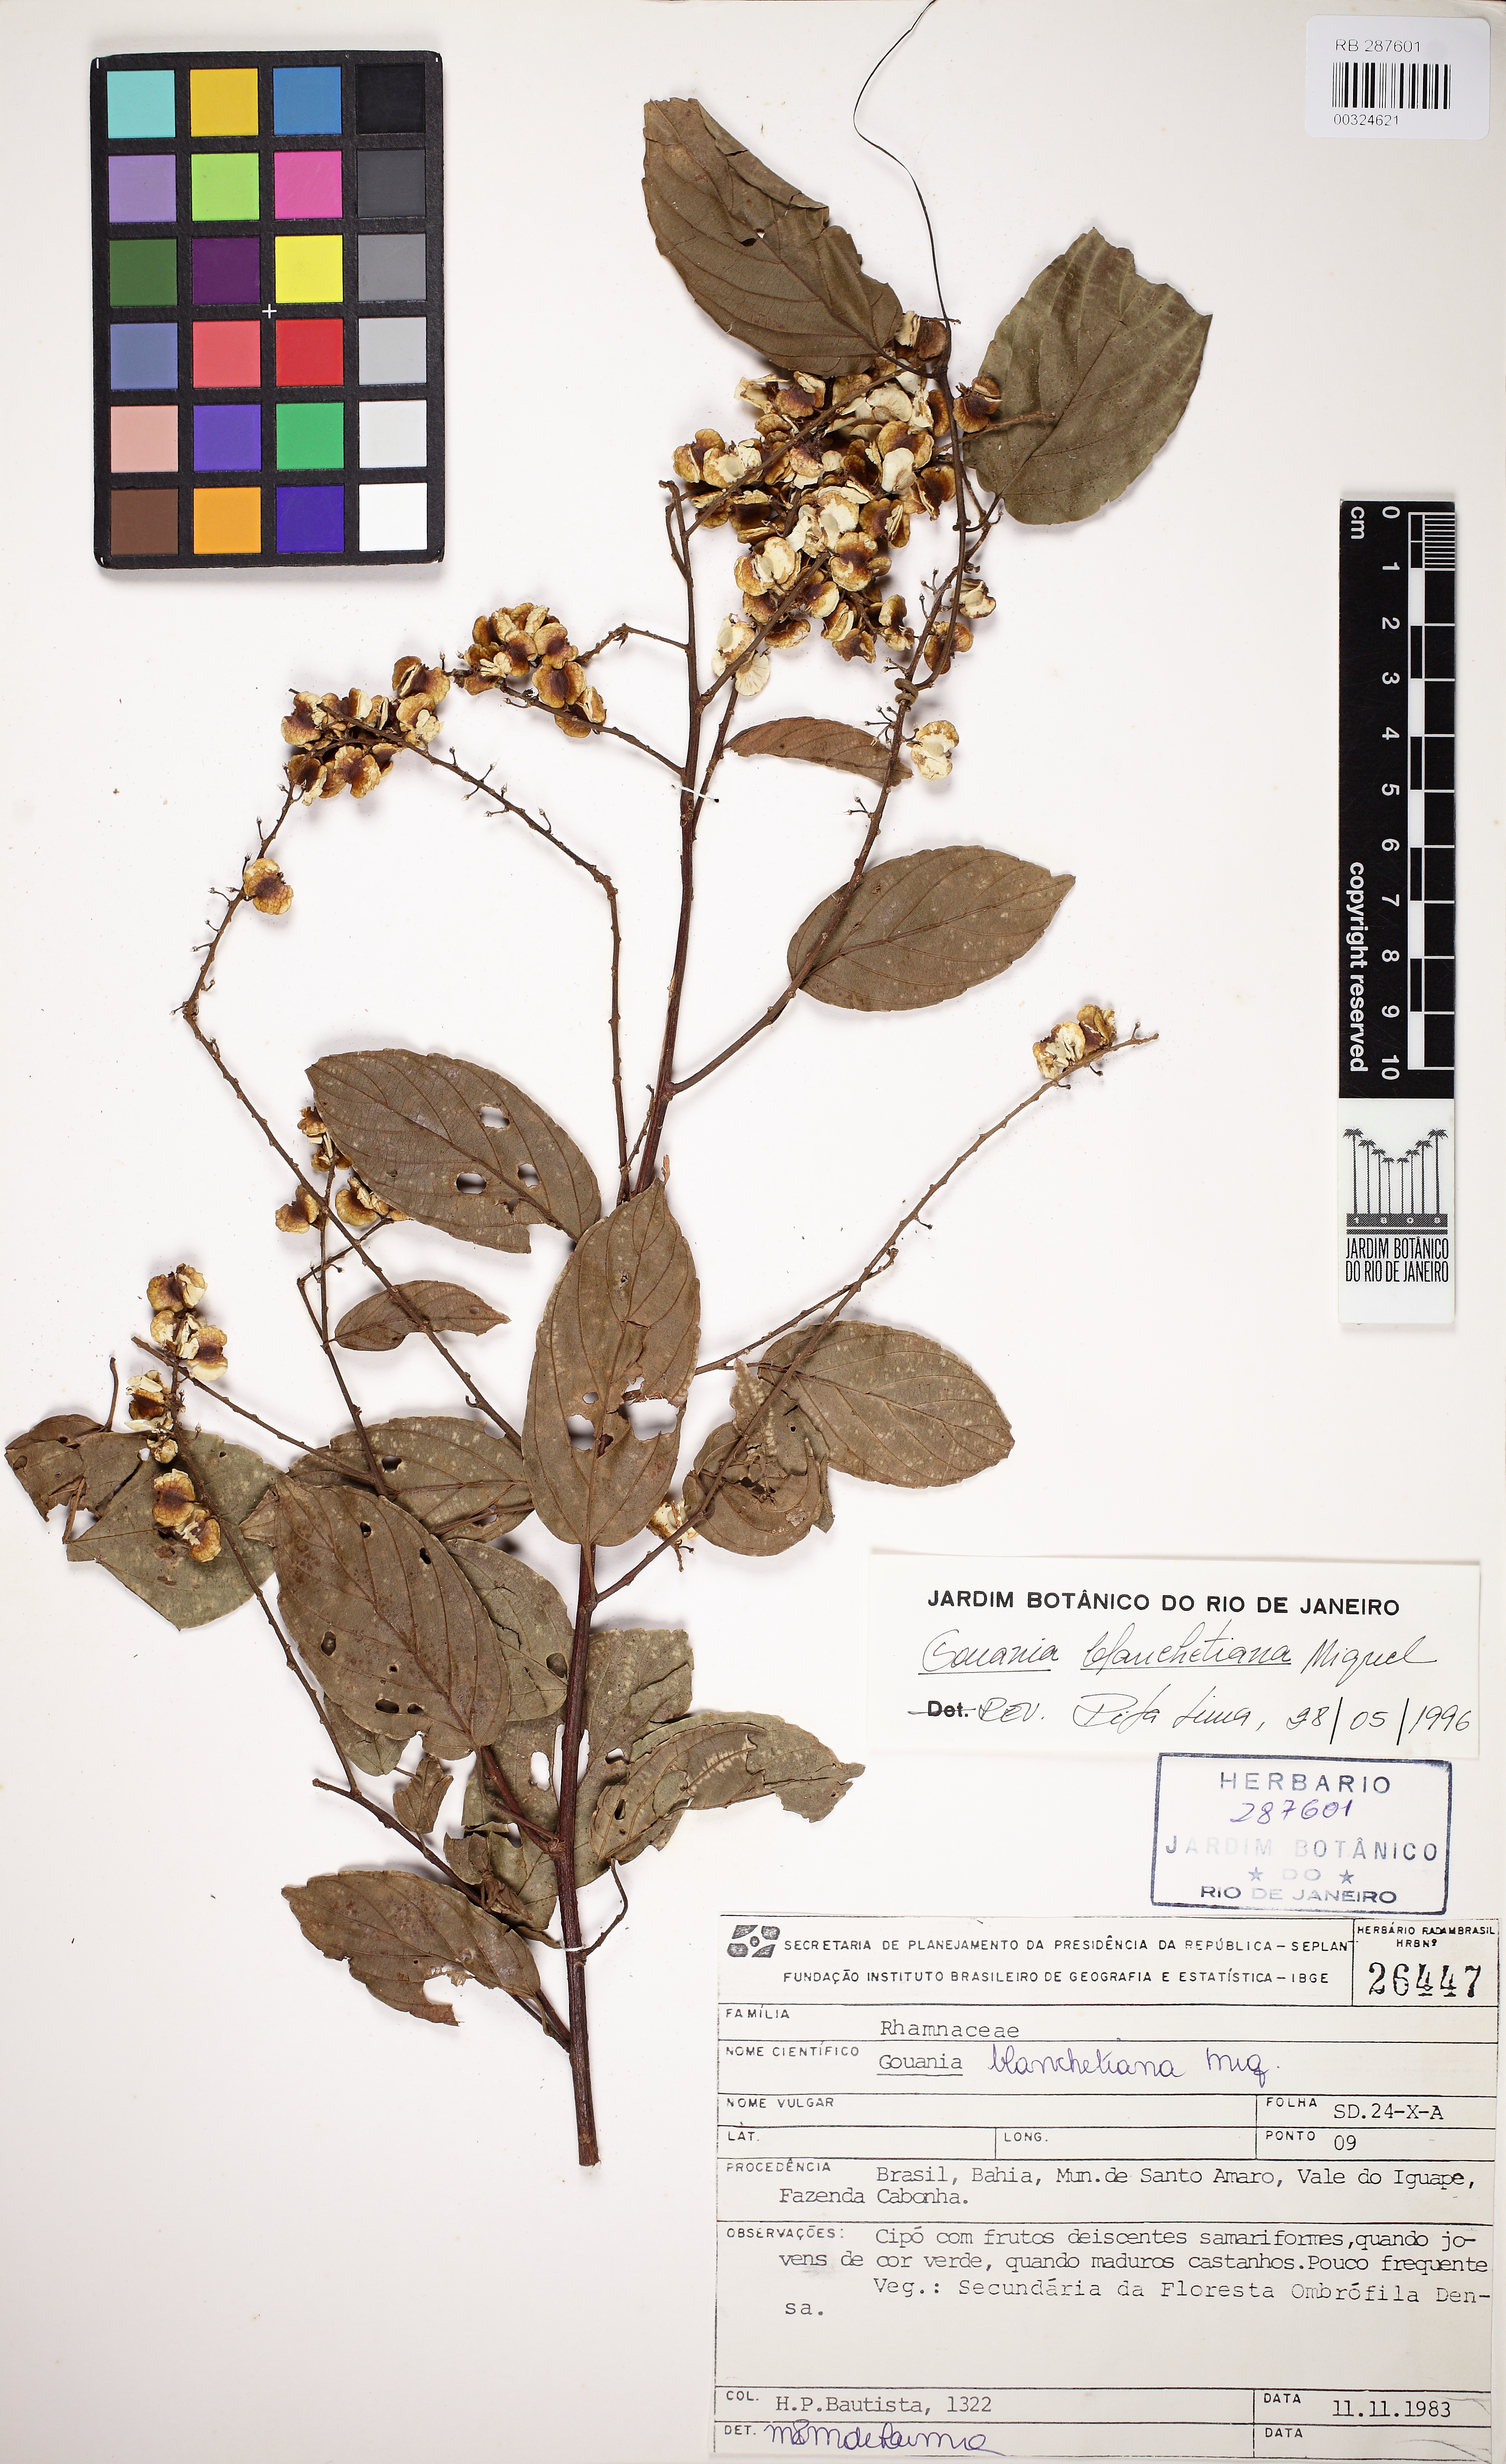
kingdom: Plantae
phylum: Tracheophyta
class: Magnoliopsida
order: Rosales
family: Rhamnaceae
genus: Gouania
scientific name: Gouania blanchetiana
